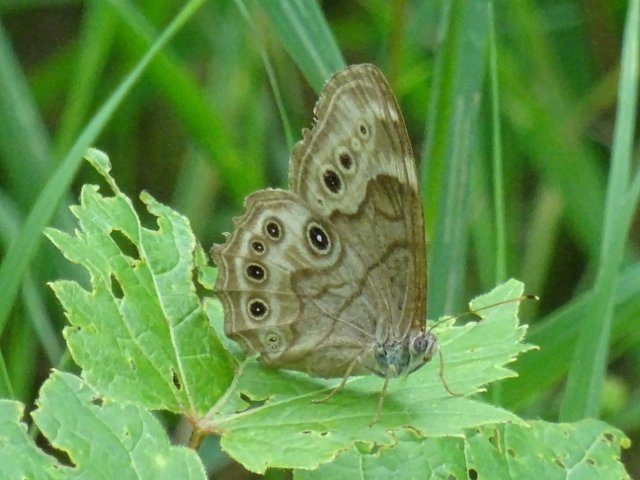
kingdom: Animalia
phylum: Arthropoda
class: Insecta
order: Lepidoptera
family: Nymphalidae
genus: Lethe
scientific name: Lethe anthedon
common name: Northern Pearly-Eye
